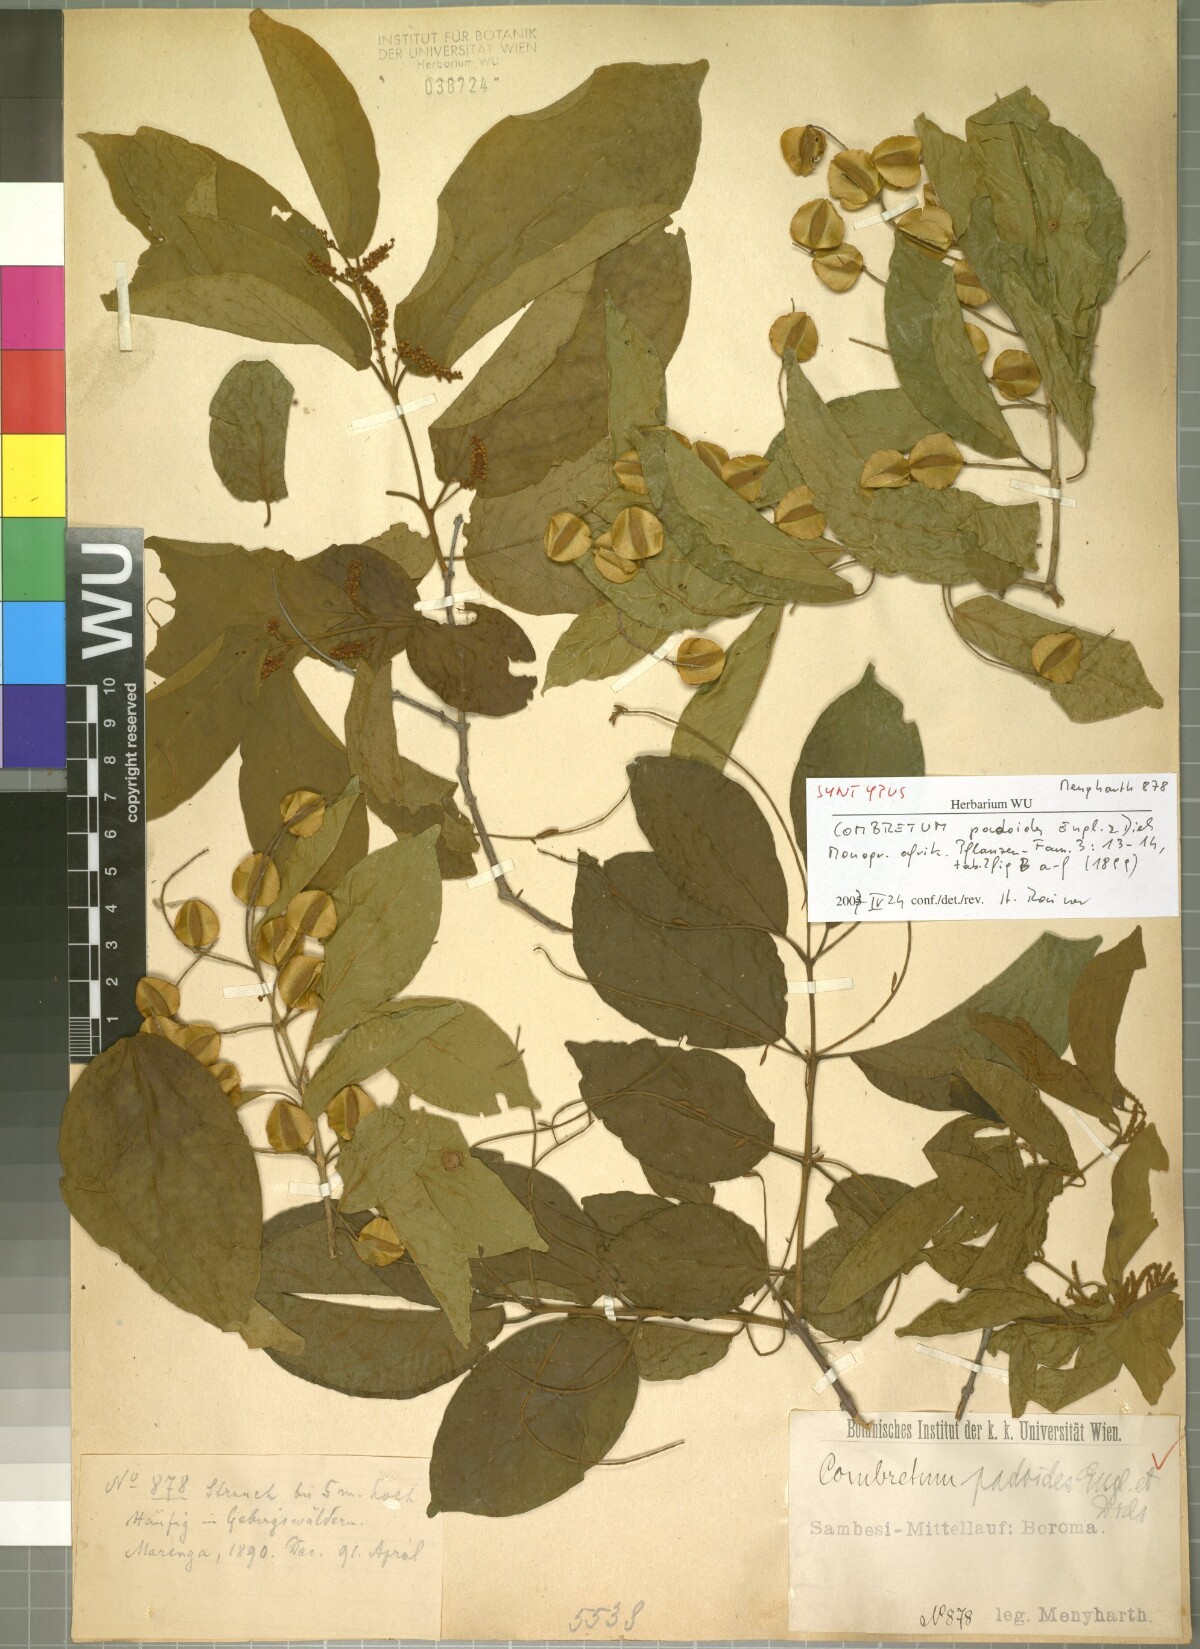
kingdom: Plantae
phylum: Tracheophyta
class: Magnoliopsida
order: Myrtales
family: Combretaceae
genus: Combretum
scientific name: Combretum padoides
